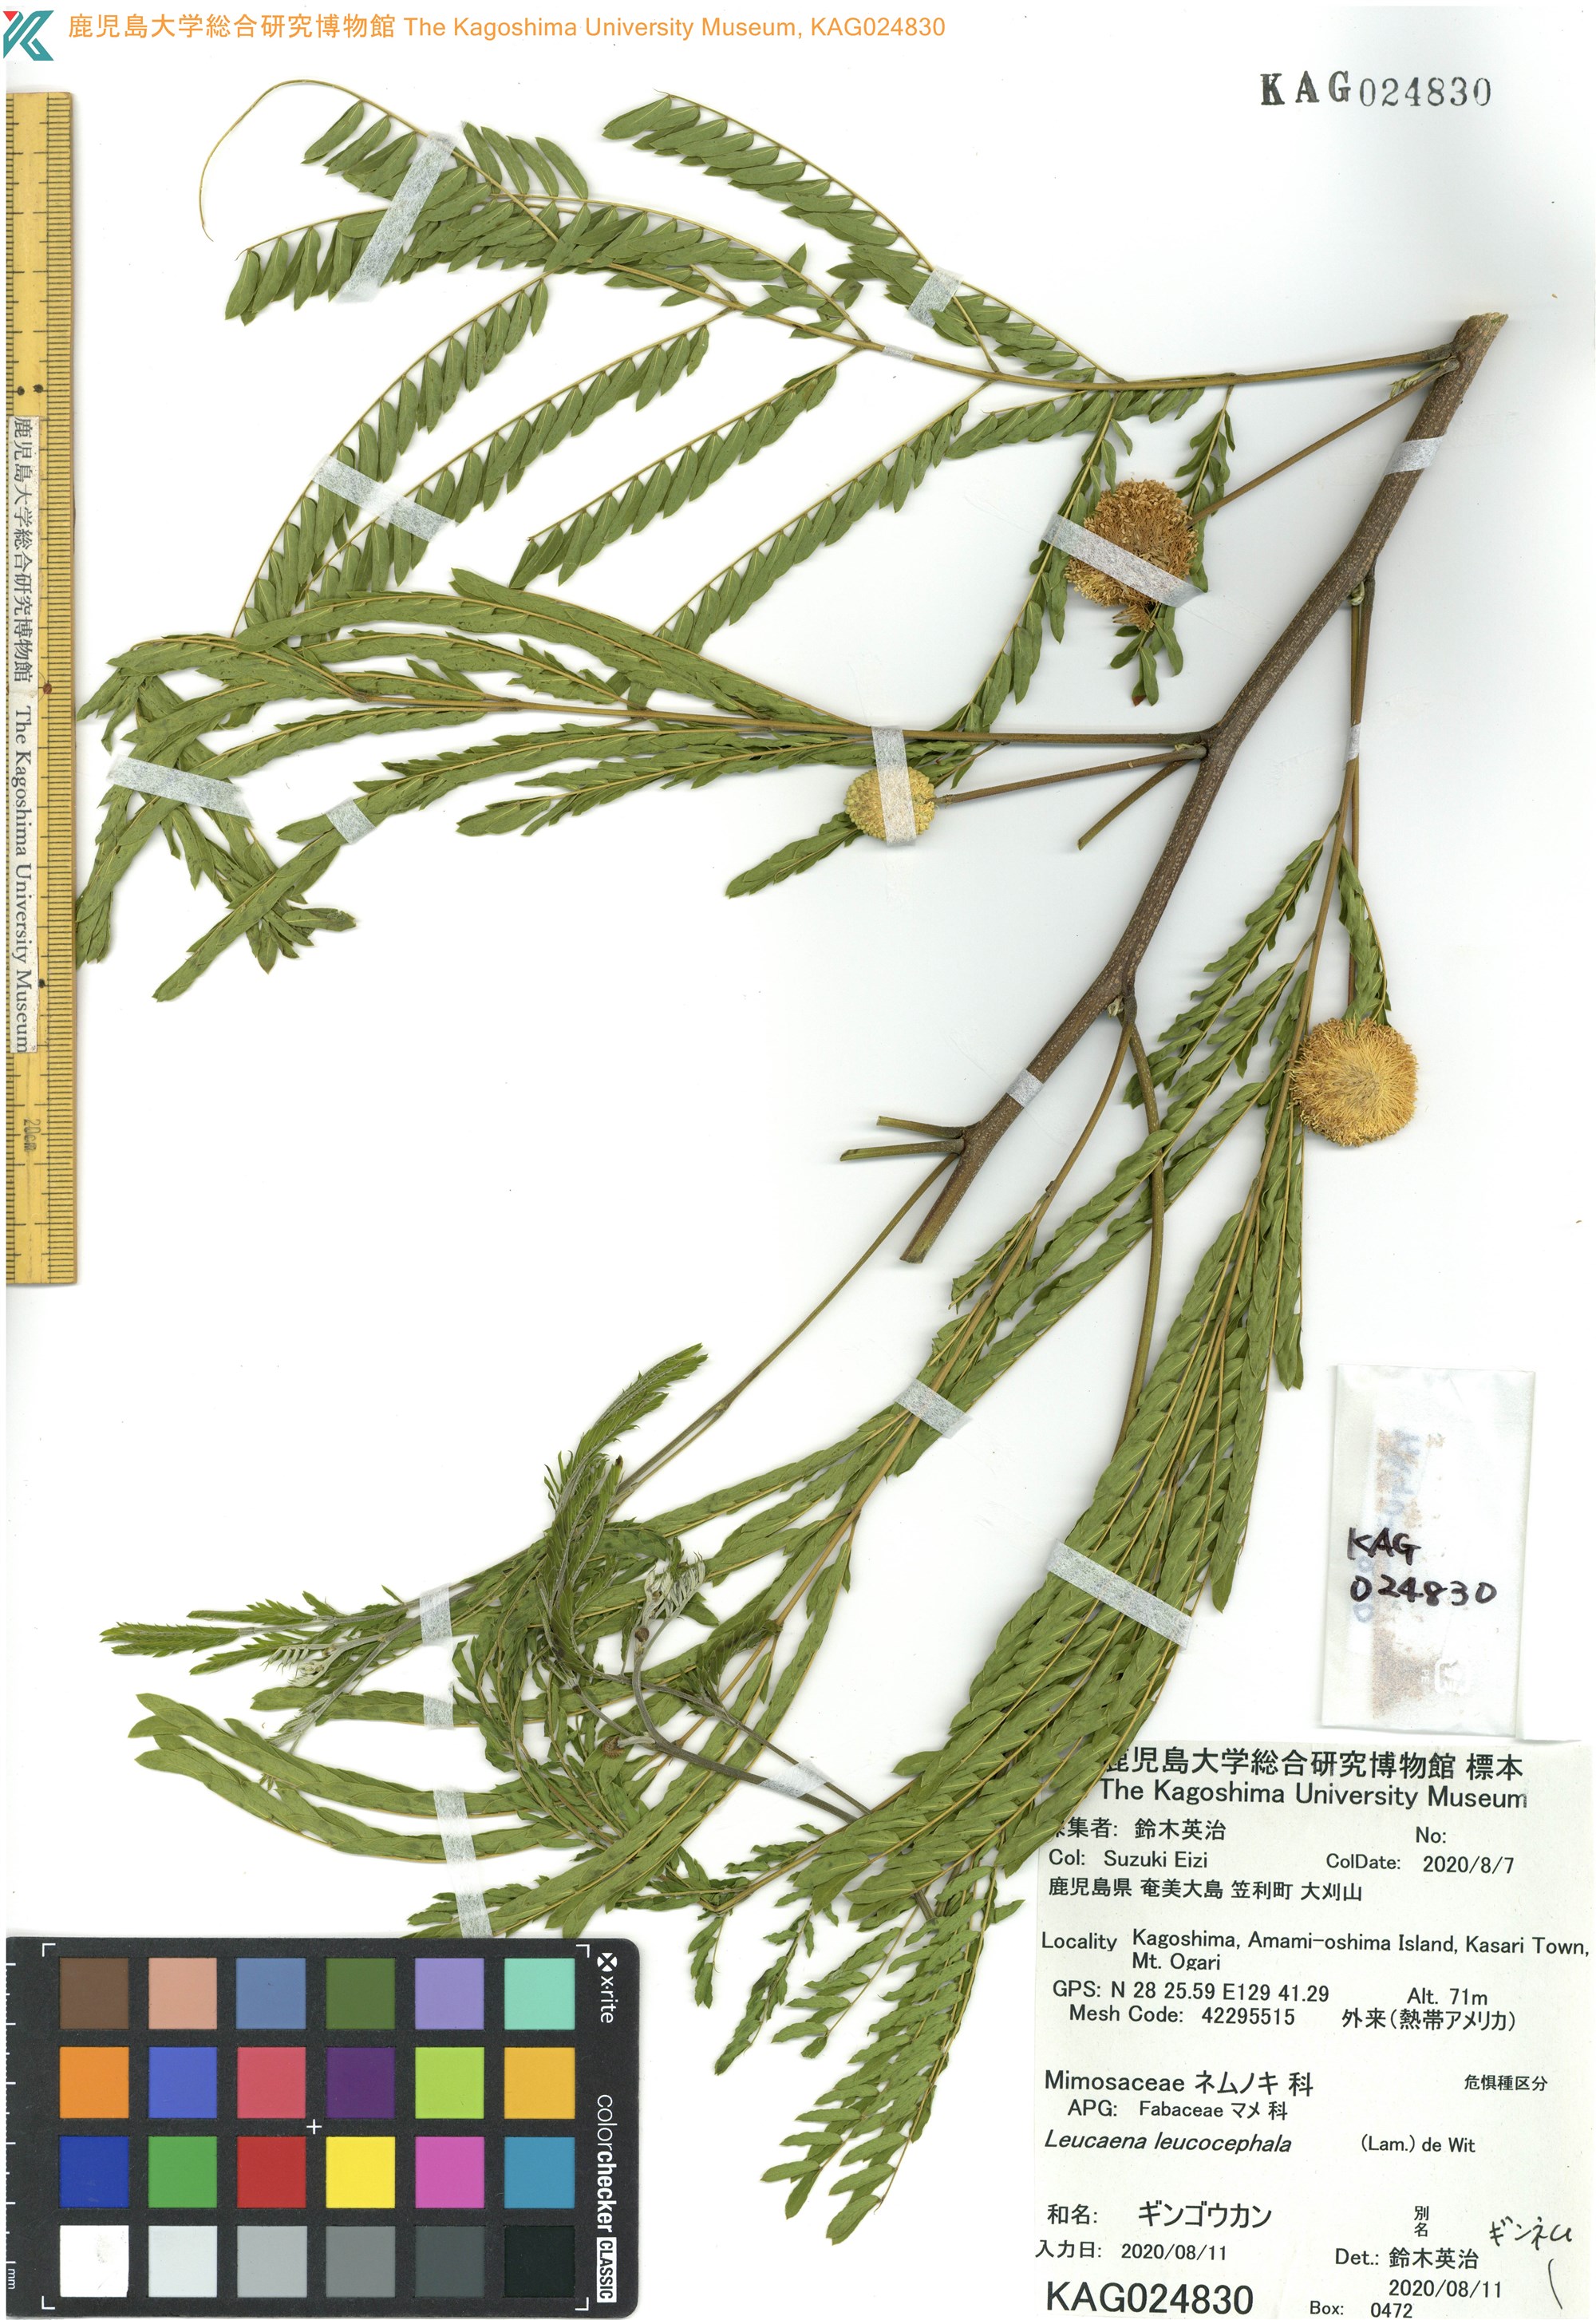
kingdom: Plantae
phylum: Tracheophyta
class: Magnoliopsida
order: Fabales
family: Fabaceae
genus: Leucaena
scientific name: Leucaena leucocephala
